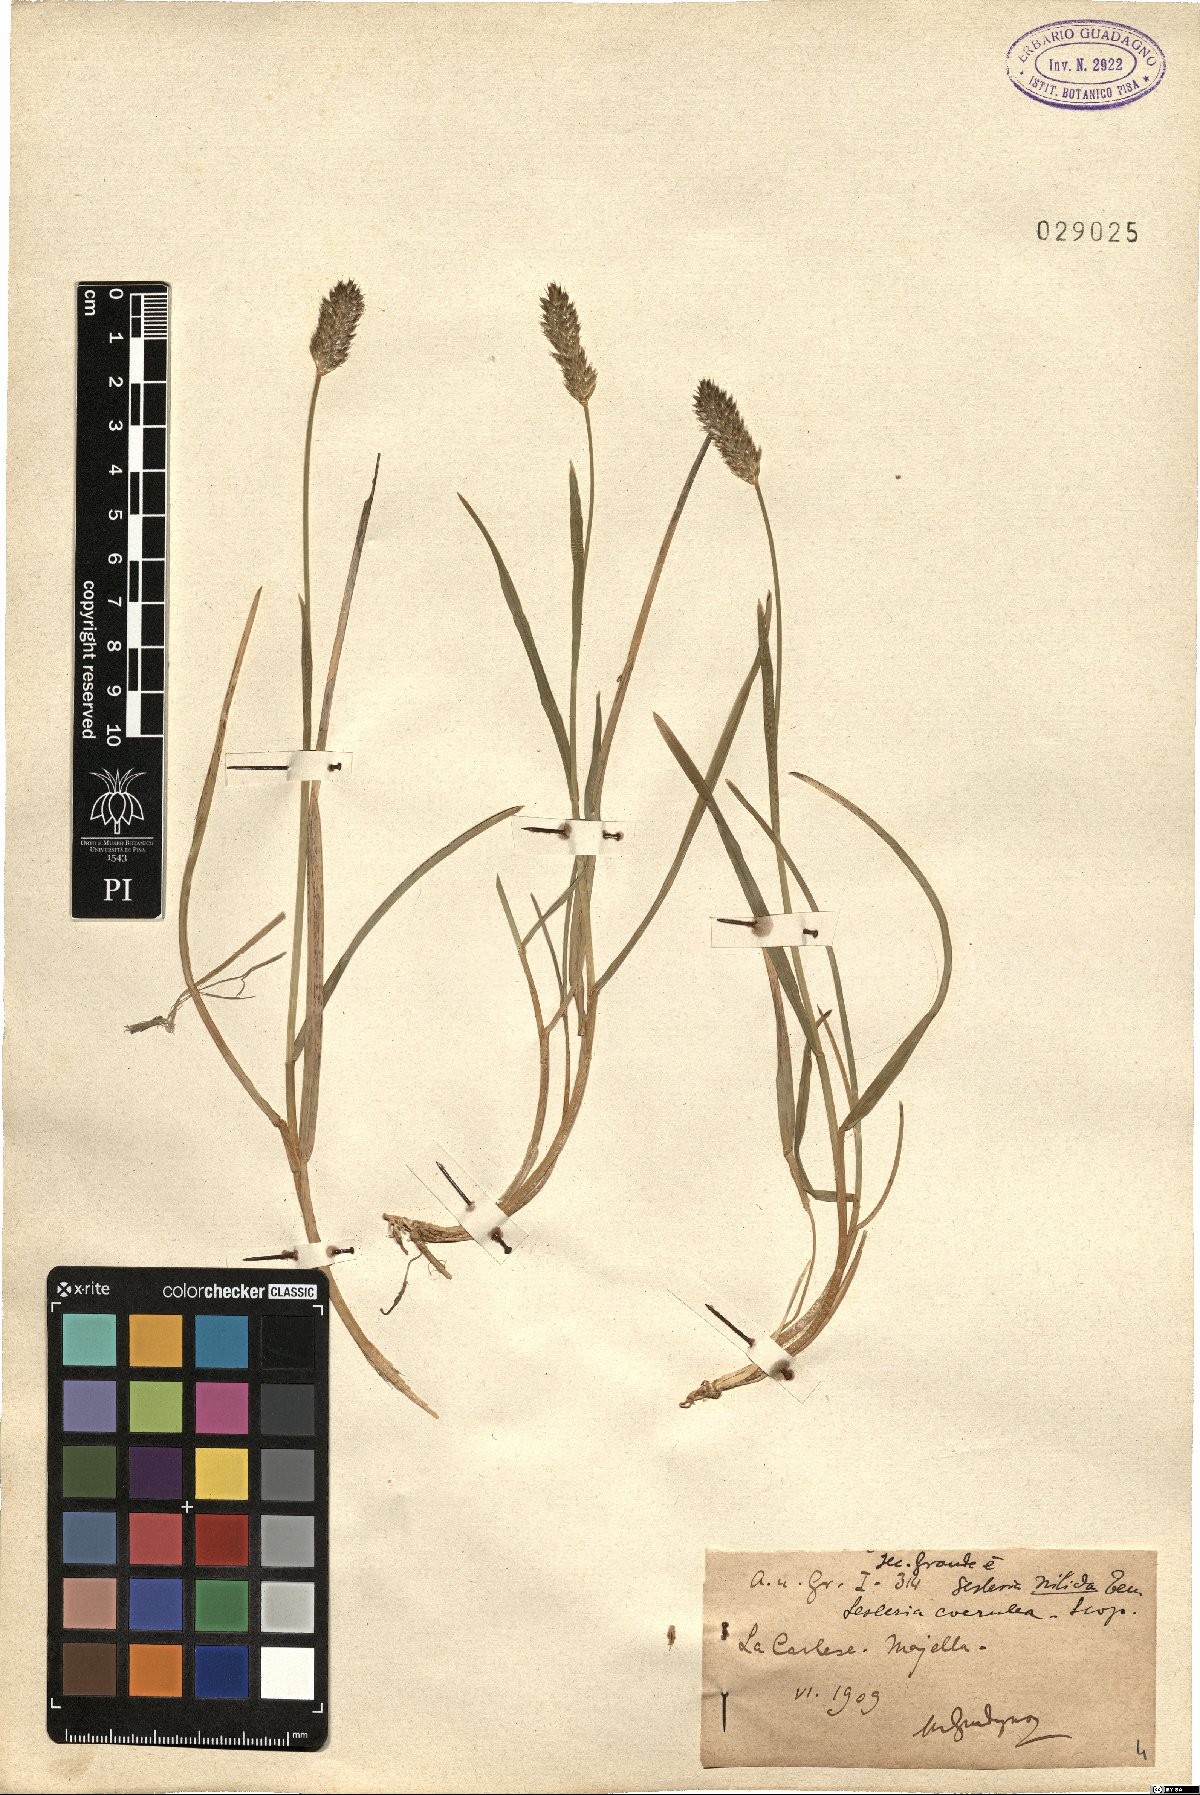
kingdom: Plantae
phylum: Tracheophyta
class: Liliopsida
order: Poales
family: Poaceae
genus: Sesleria
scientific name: Sesleria nitida
